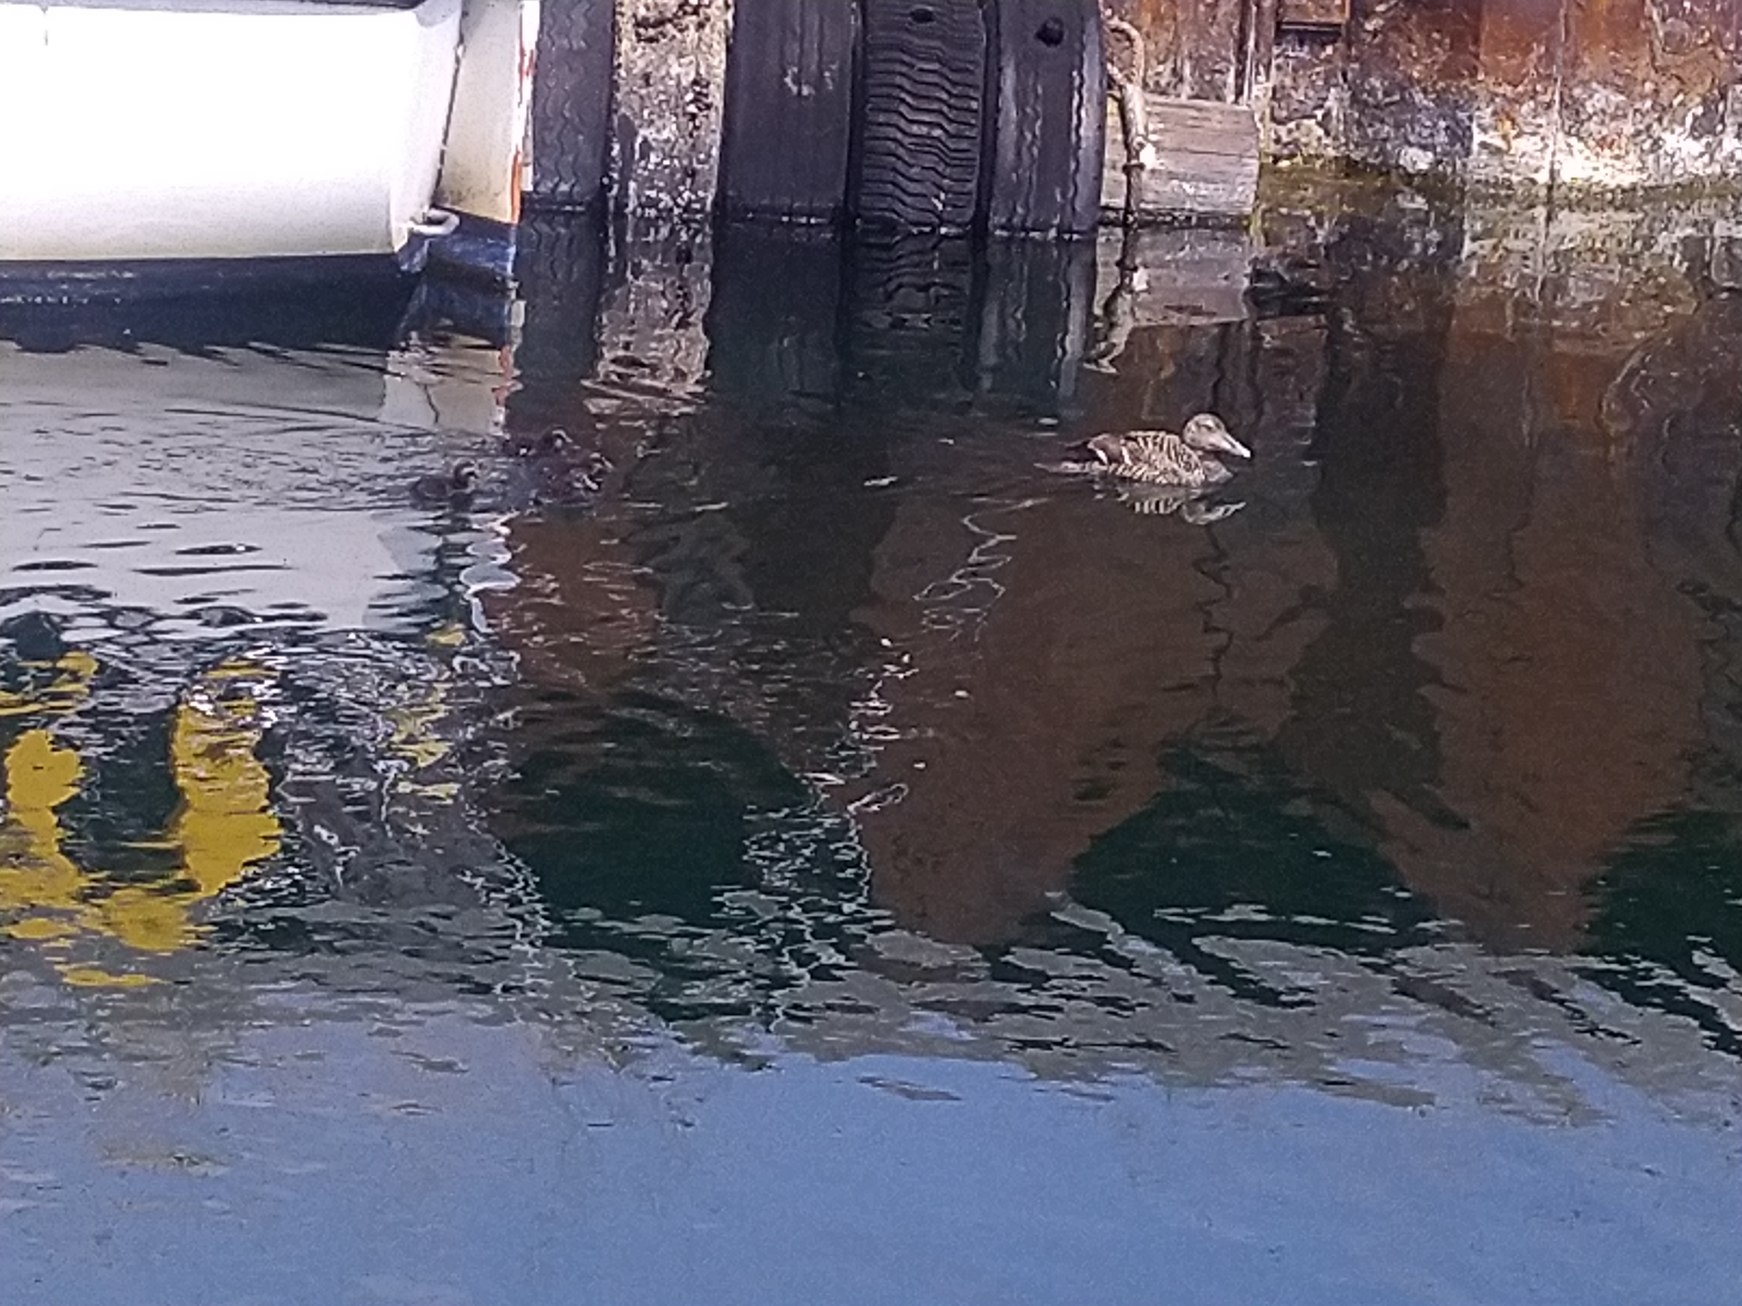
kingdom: Animalia
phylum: Chordata
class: Aves
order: Anseriformes
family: Anatidae
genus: Somateria
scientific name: Somateria mollissima
